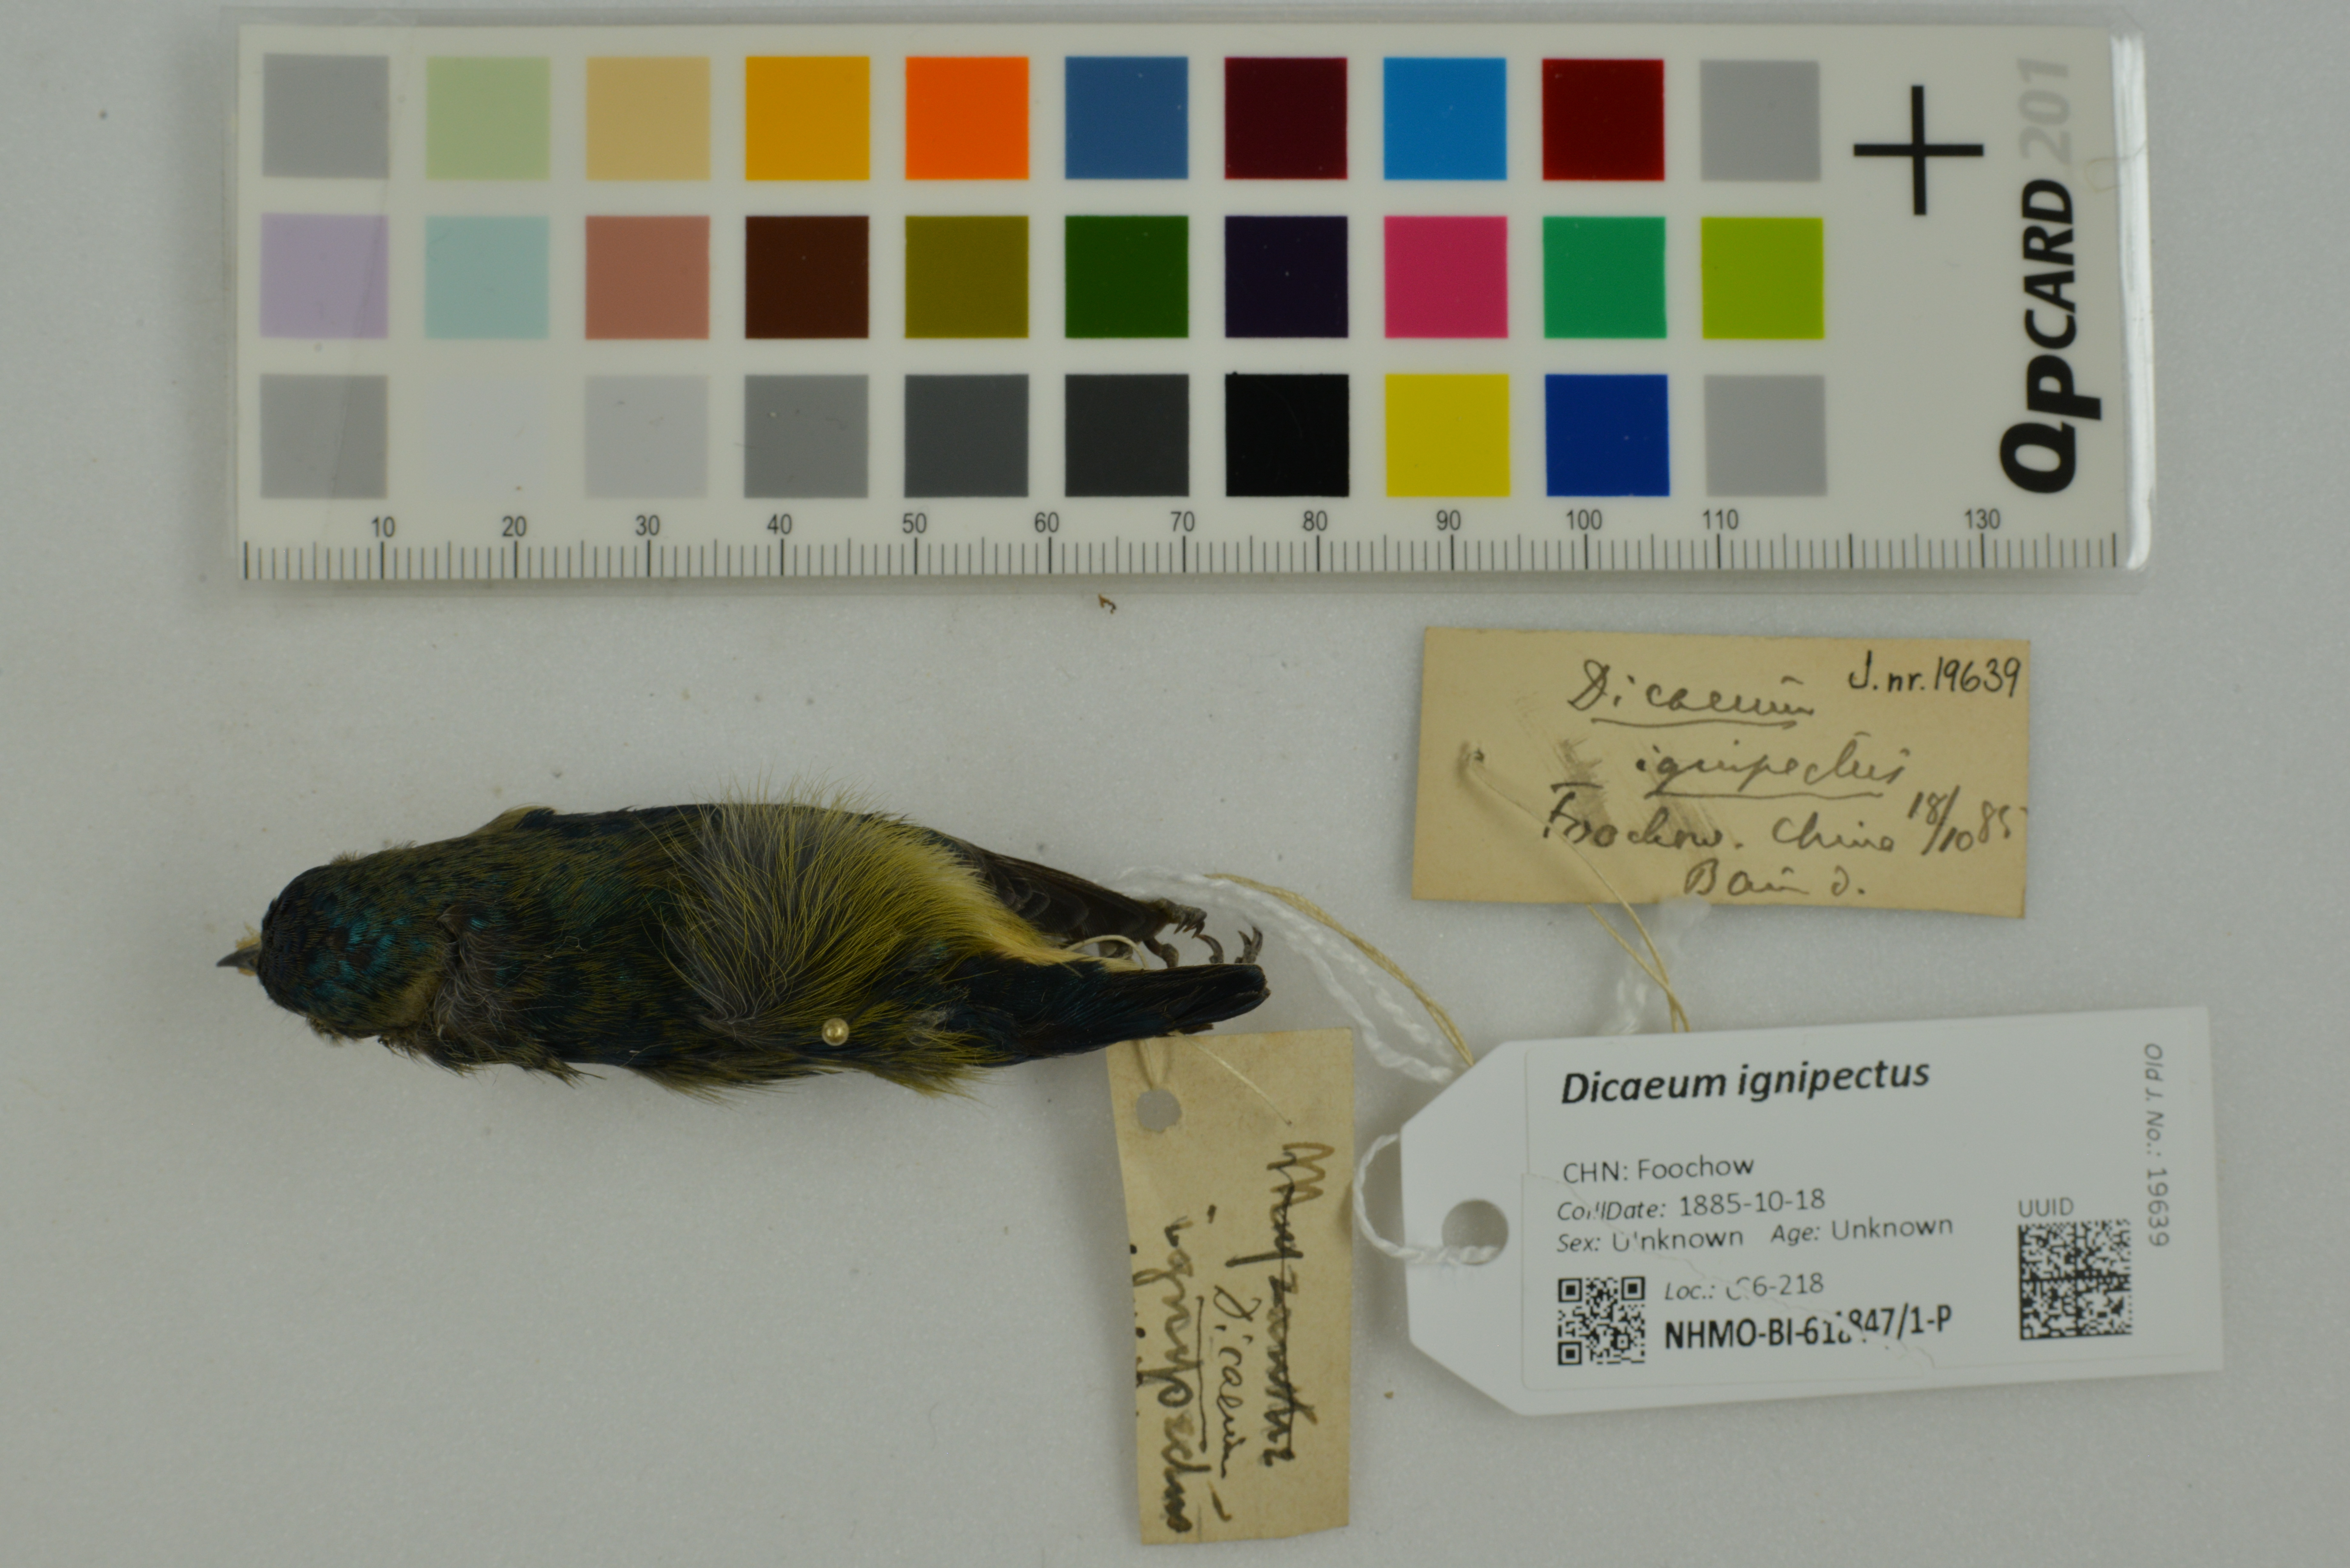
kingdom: Animalia
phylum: Chordata
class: Aves
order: Passeriformes
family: Dicaeidae
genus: Dicaeum
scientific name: Dicaeum ignipectus
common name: Fire-breasted flowerpecker
